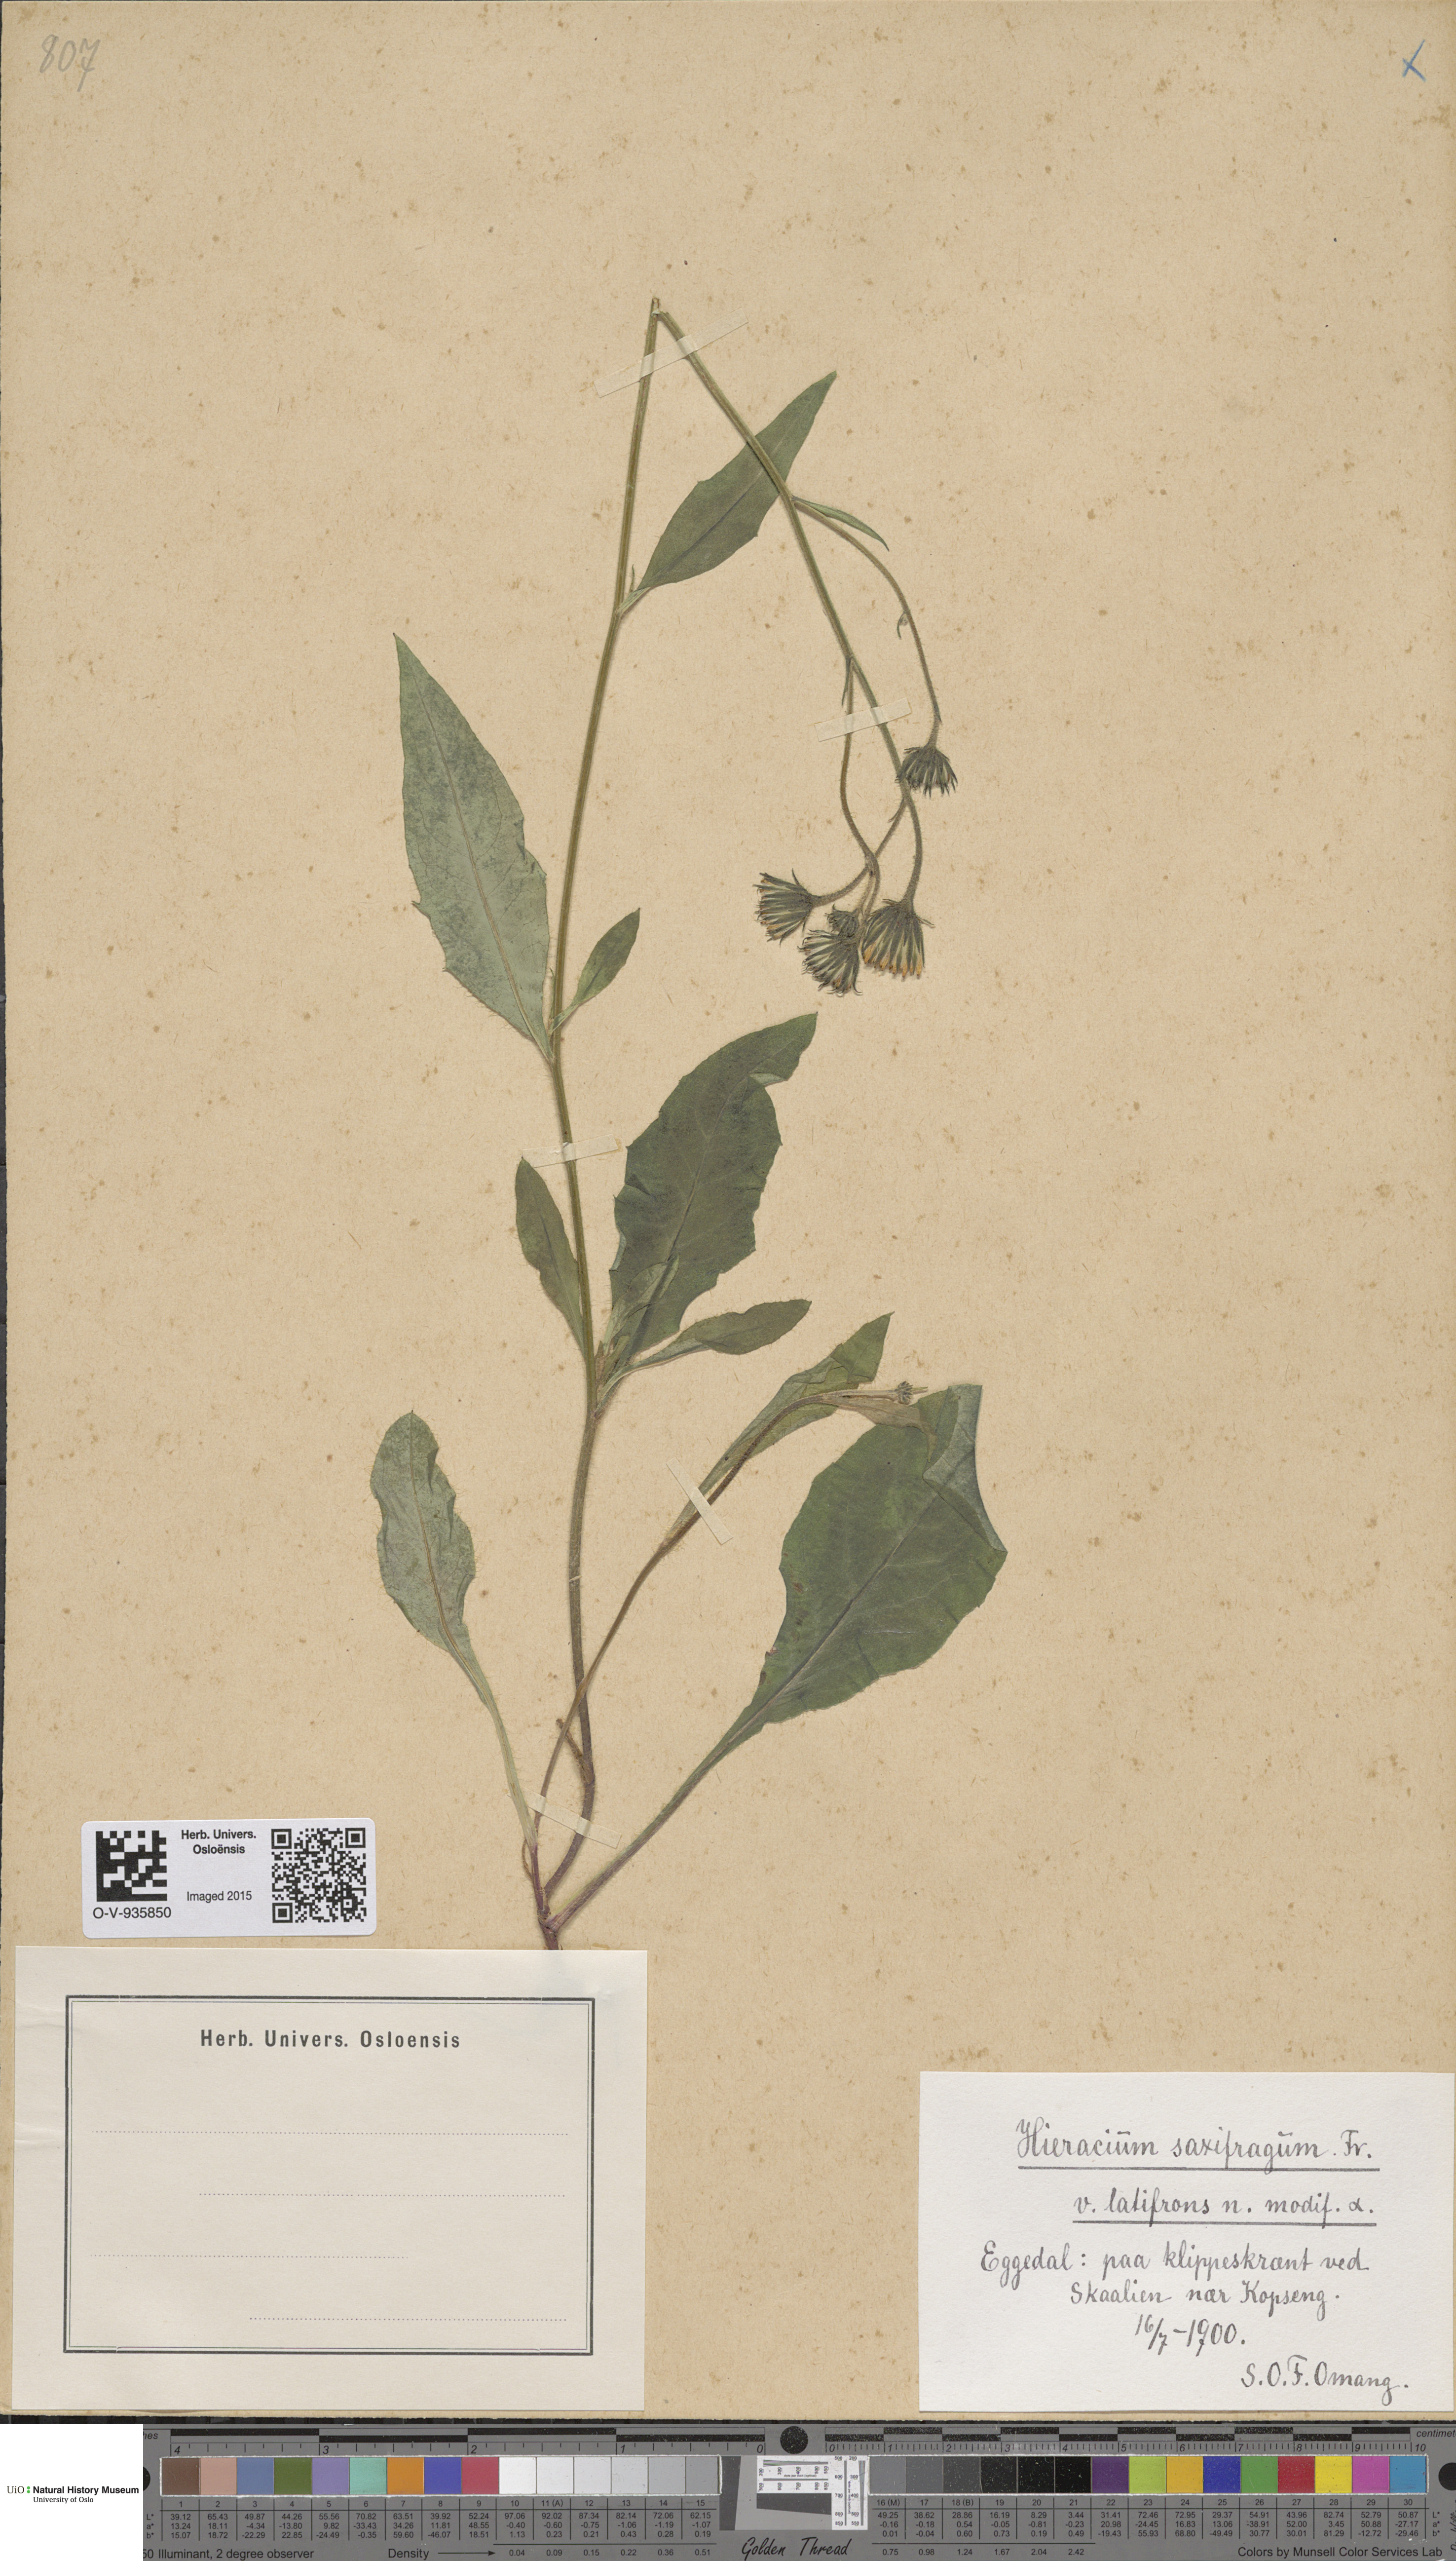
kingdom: Plantae
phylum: Tracheophyta
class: Magnoliopsida
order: Asterales
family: Asteraceae
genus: Hieracium
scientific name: Hieracium saxifragum
